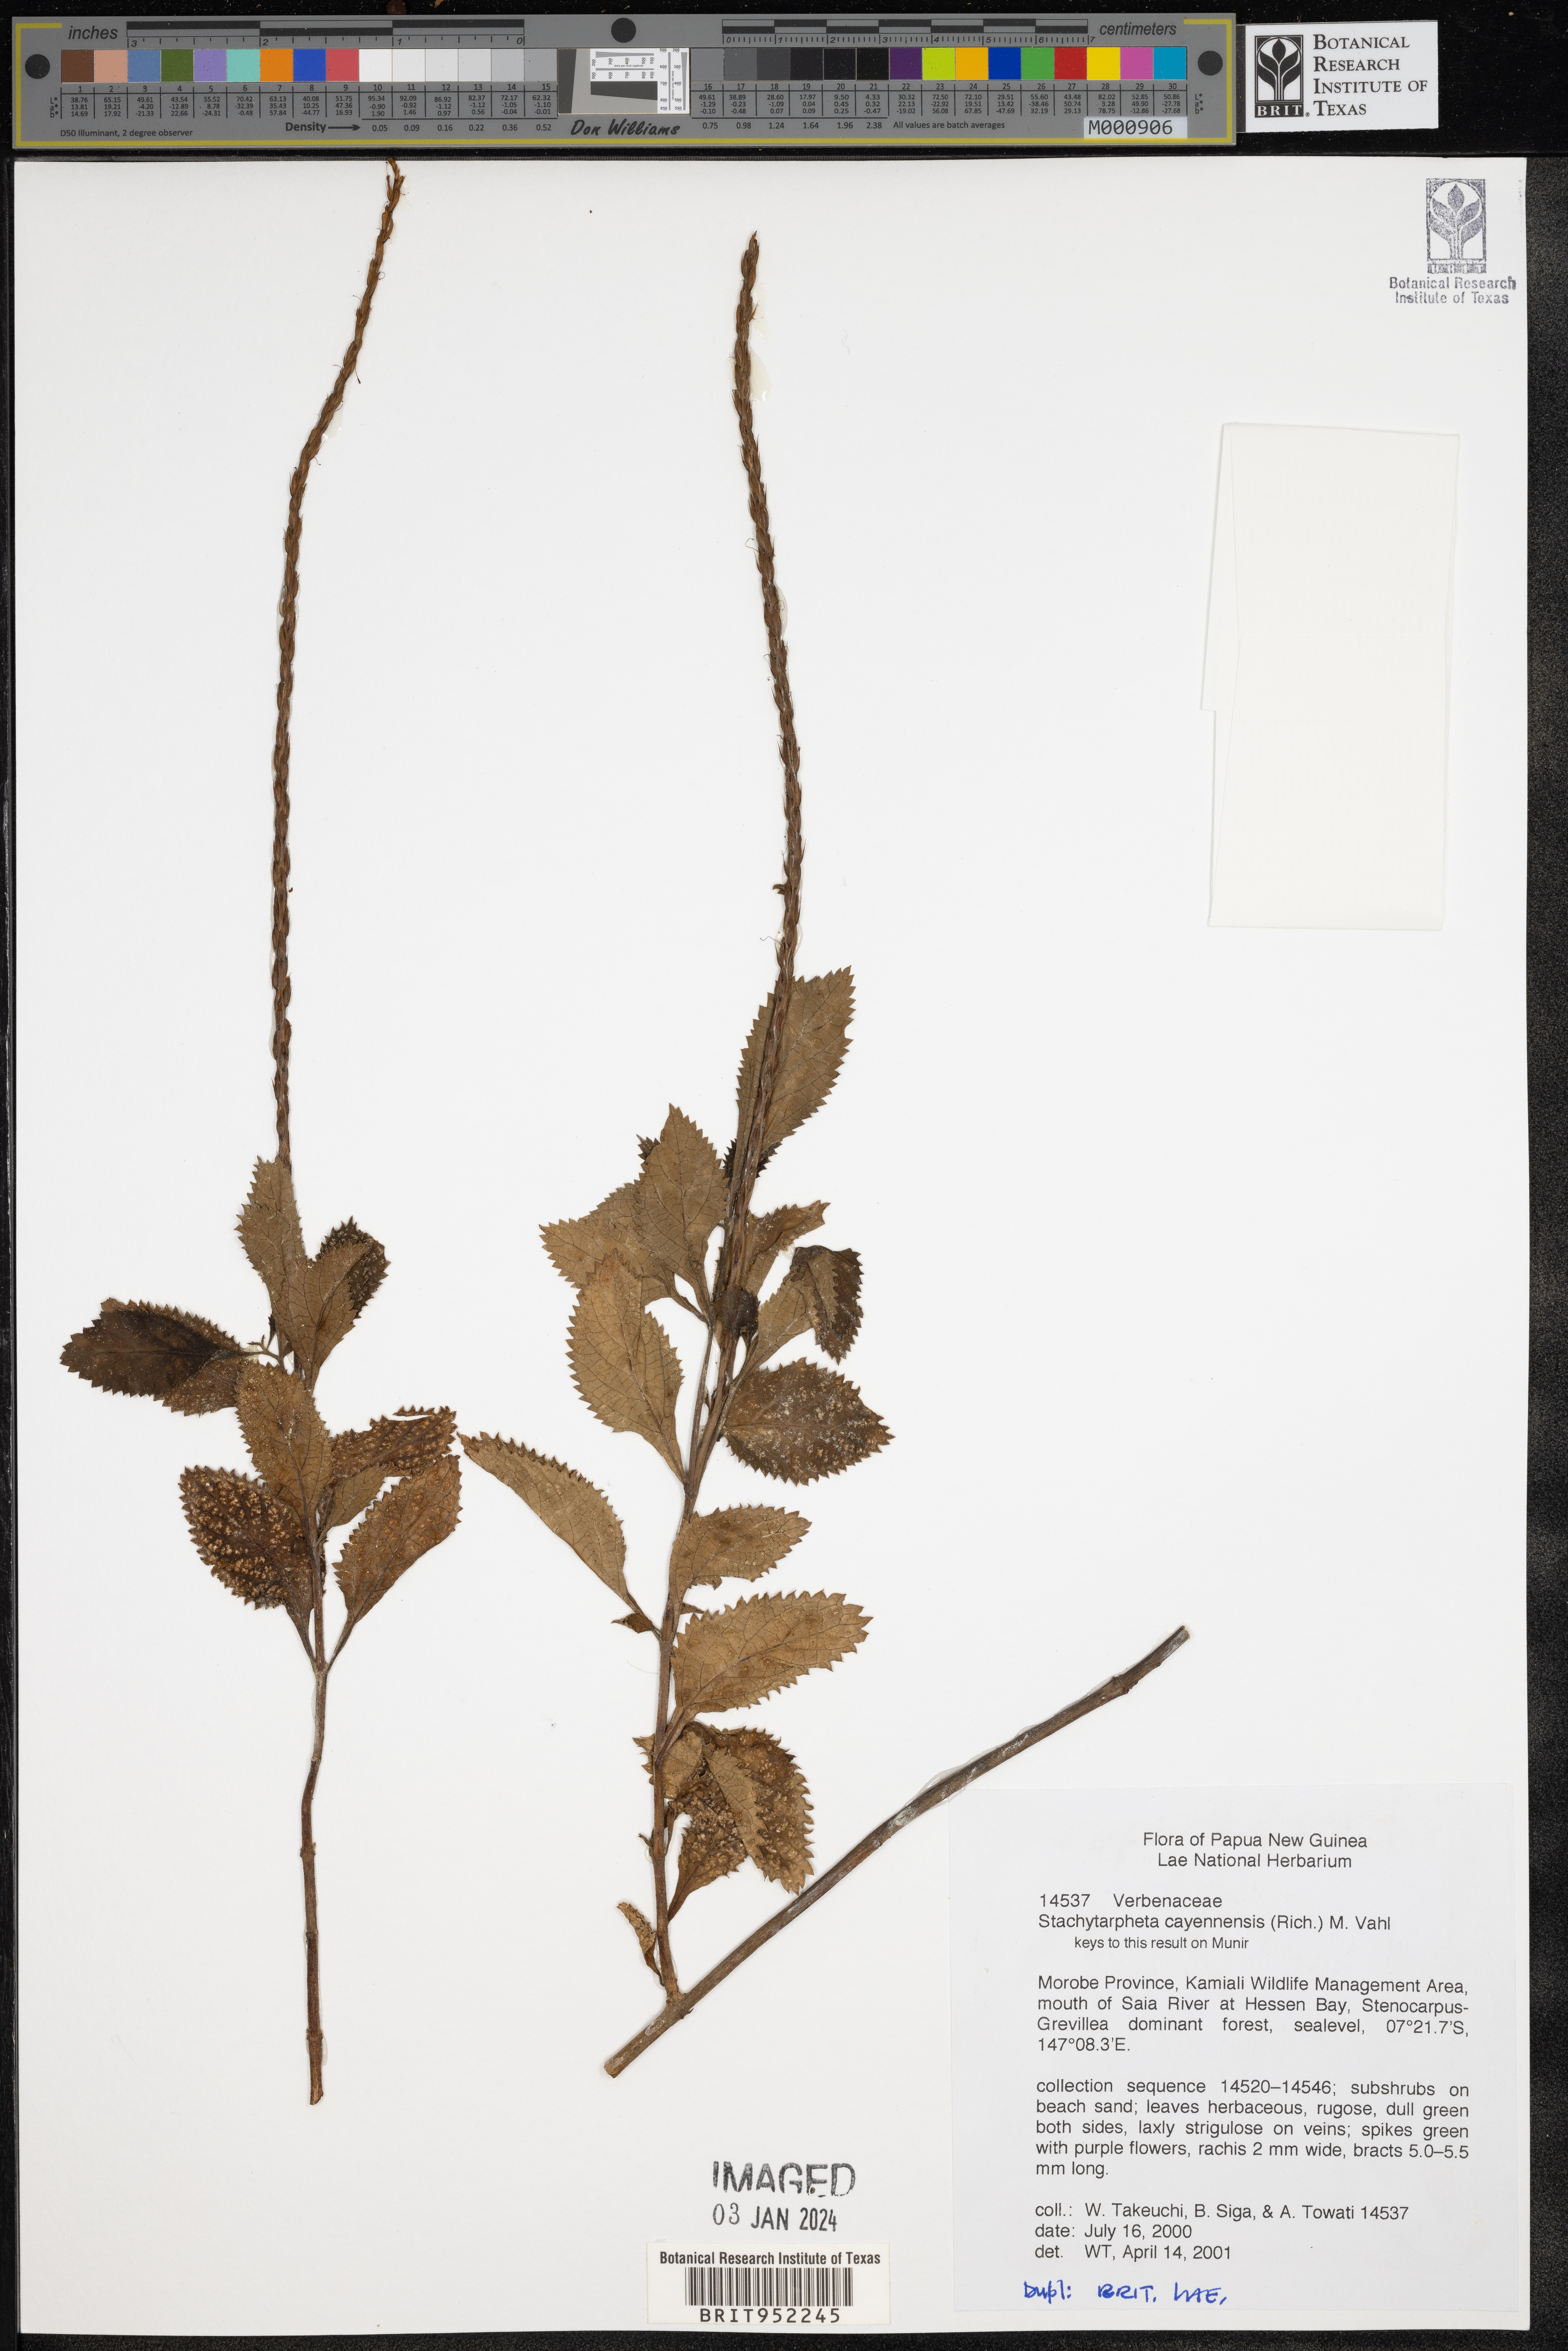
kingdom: Plantae
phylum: Tracheophyta
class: Magnoliopsida
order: Lamiales
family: Verbenaceae
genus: Stachytarpheta
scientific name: Stachytarpheta
